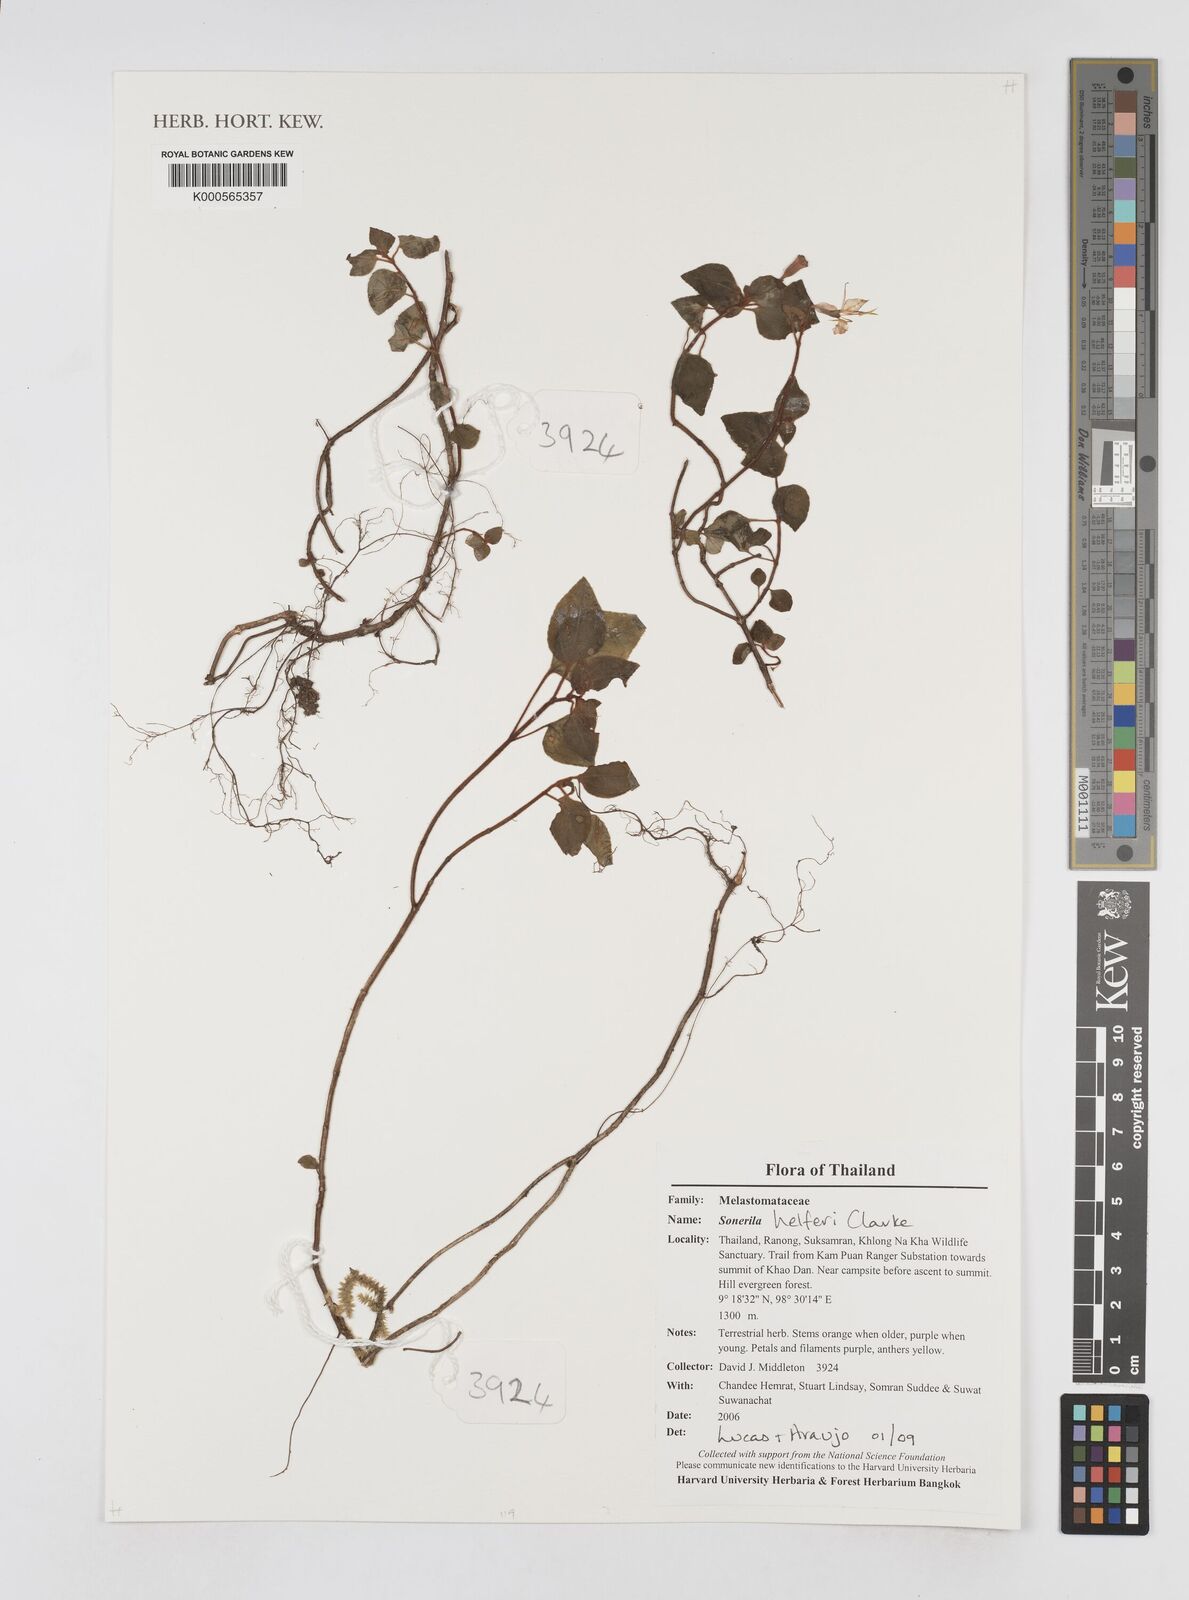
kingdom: Plantae
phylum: Tracheophyta
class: Magnoliopsida
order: Myrtales
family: Melastomataceae
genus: Sonerila
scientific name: Sonerila helferi
